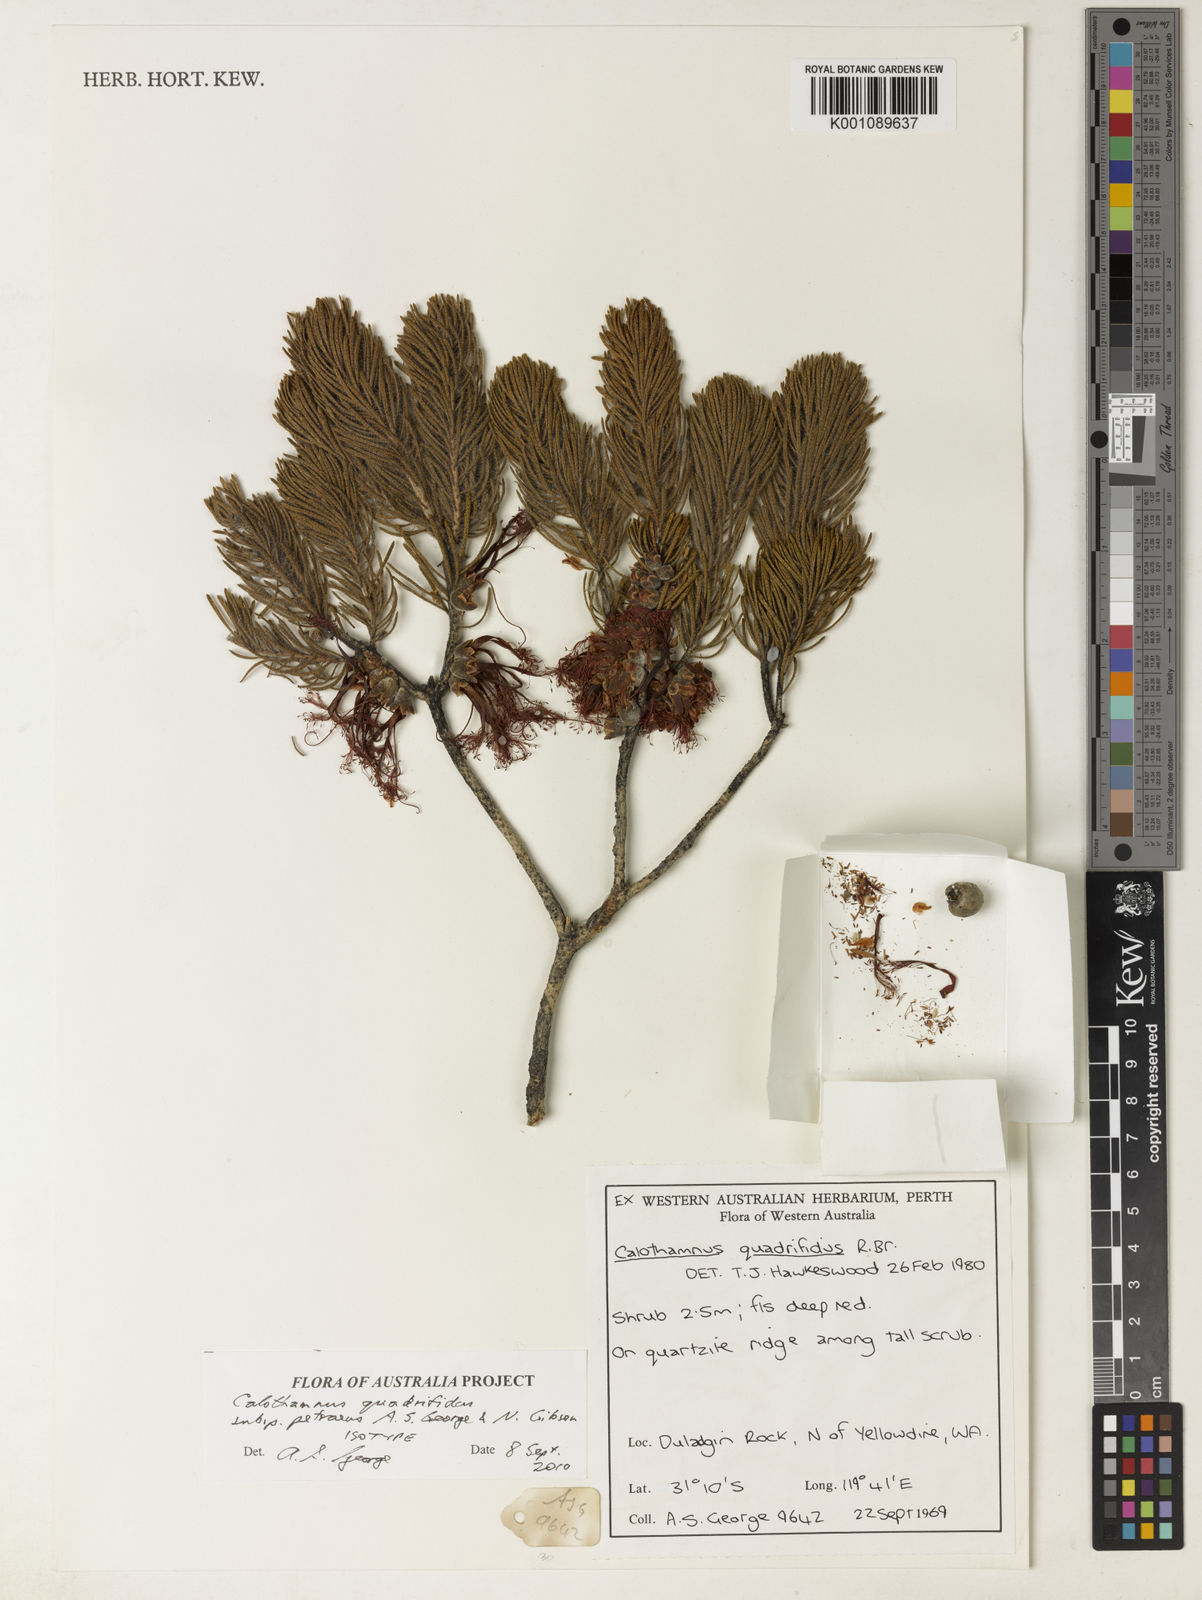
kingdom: Plantae
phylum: Tracheophyta
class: Magnoliopsida
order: Myrtales
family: Myrtaceae
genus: Melaleuca
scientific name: Melaleuca quadrifida
